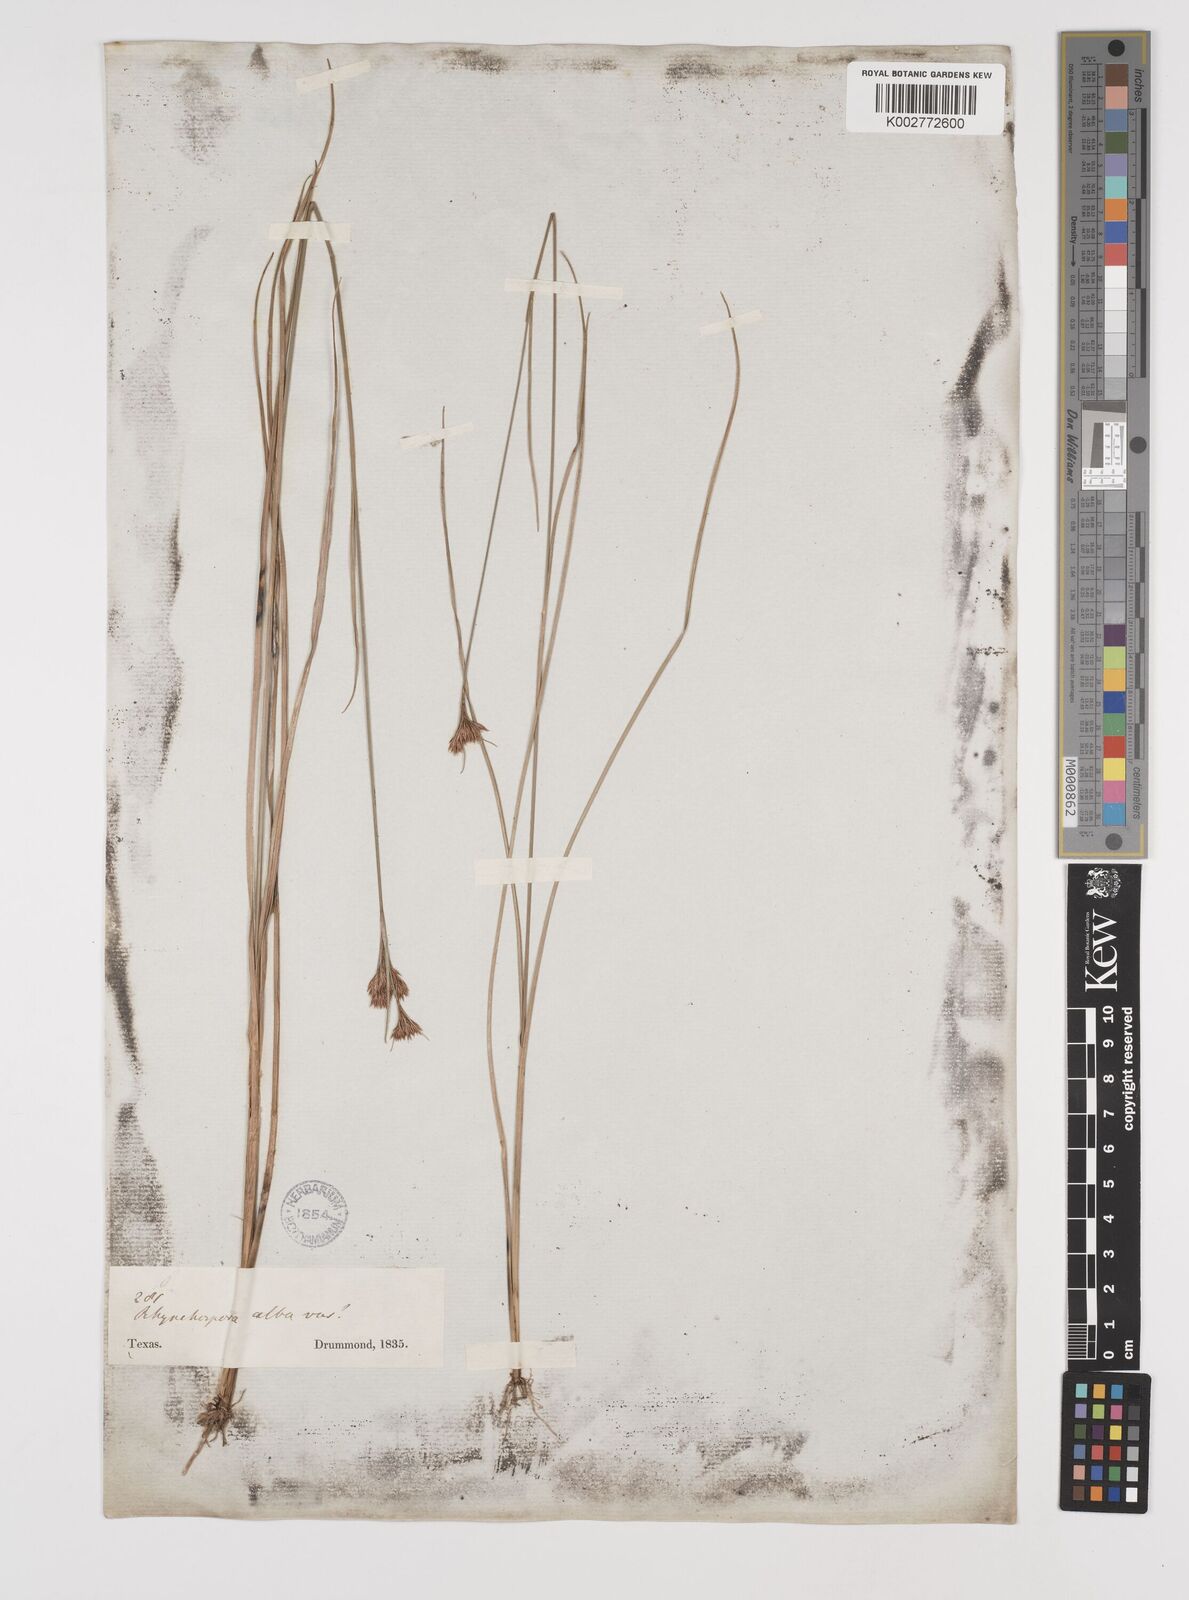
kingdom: Plantae
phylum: Tracheophyta
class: Liliopsida
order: Poales
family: Cyperaceae
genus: Rhynchospora
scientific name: Rhynchospora alba
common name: White beak-sedge
